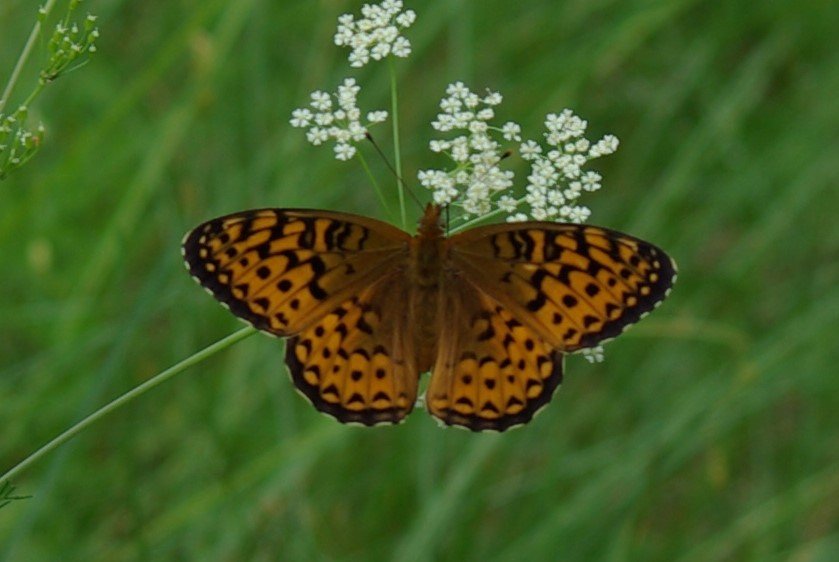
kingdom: Animalia
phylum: Arthropoda
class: Insecta
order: Lepidoptera
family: Nymphalidae
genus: Speyeria
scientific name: Speyeria atlantis
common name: Atlantis Fritillary
